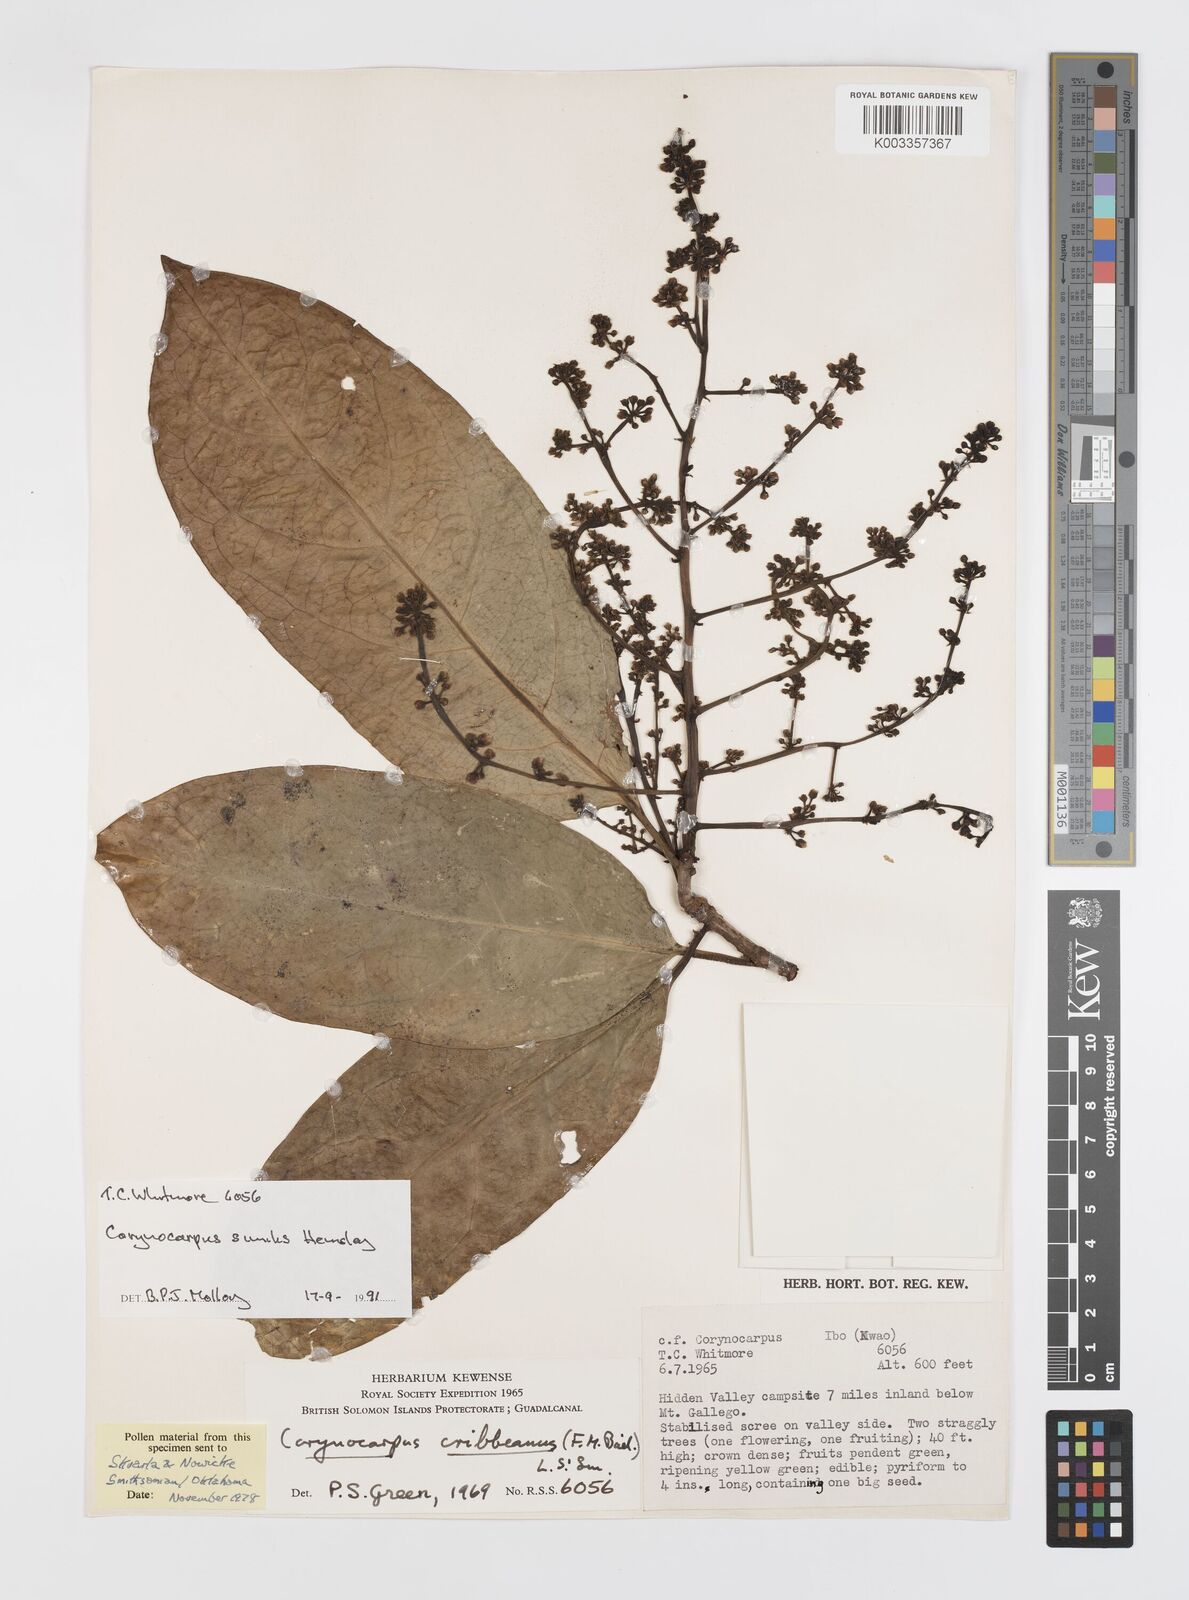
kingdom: Plantae
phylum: Tracheophyta
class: Magnoliopsida
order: Cucurbitales
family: Corynocarpaceae
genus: Corynocarpus
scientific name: Corynocarpus similis
